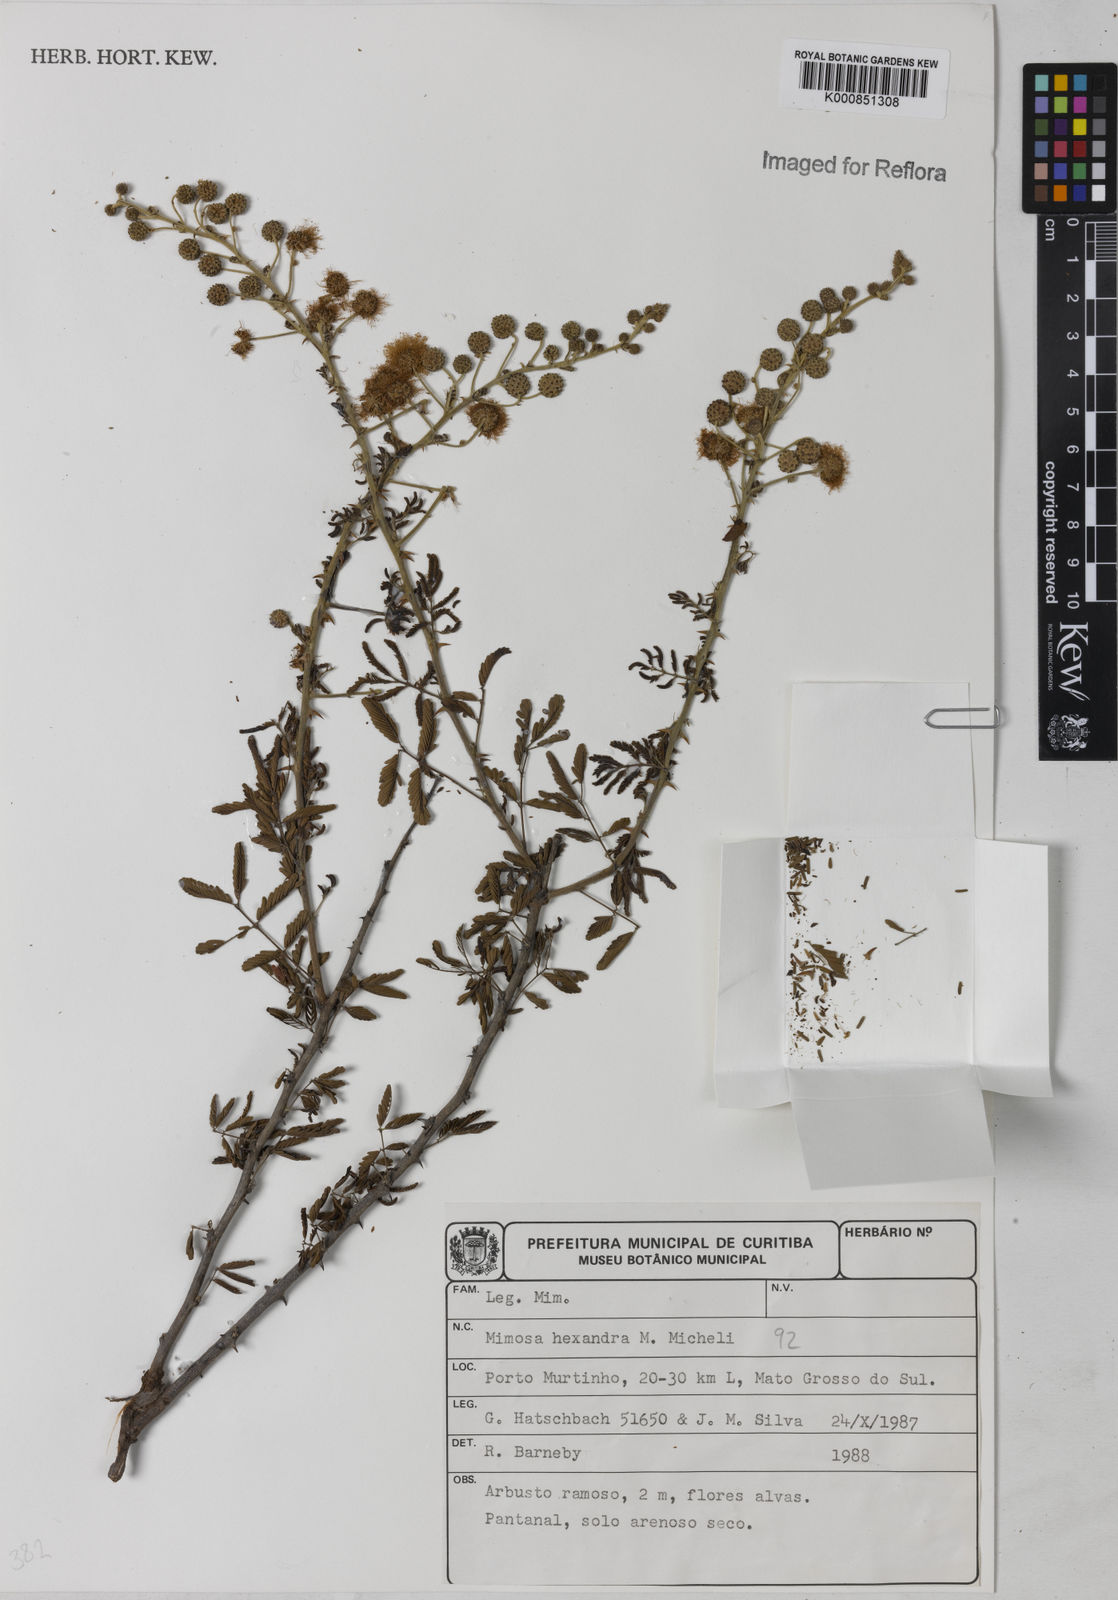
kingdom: Plantae
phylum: Tracheophyta
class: Magnoliopsida
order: Fabales
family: Fabaceae
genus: Mimosa
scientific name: Mimosa hexandra
